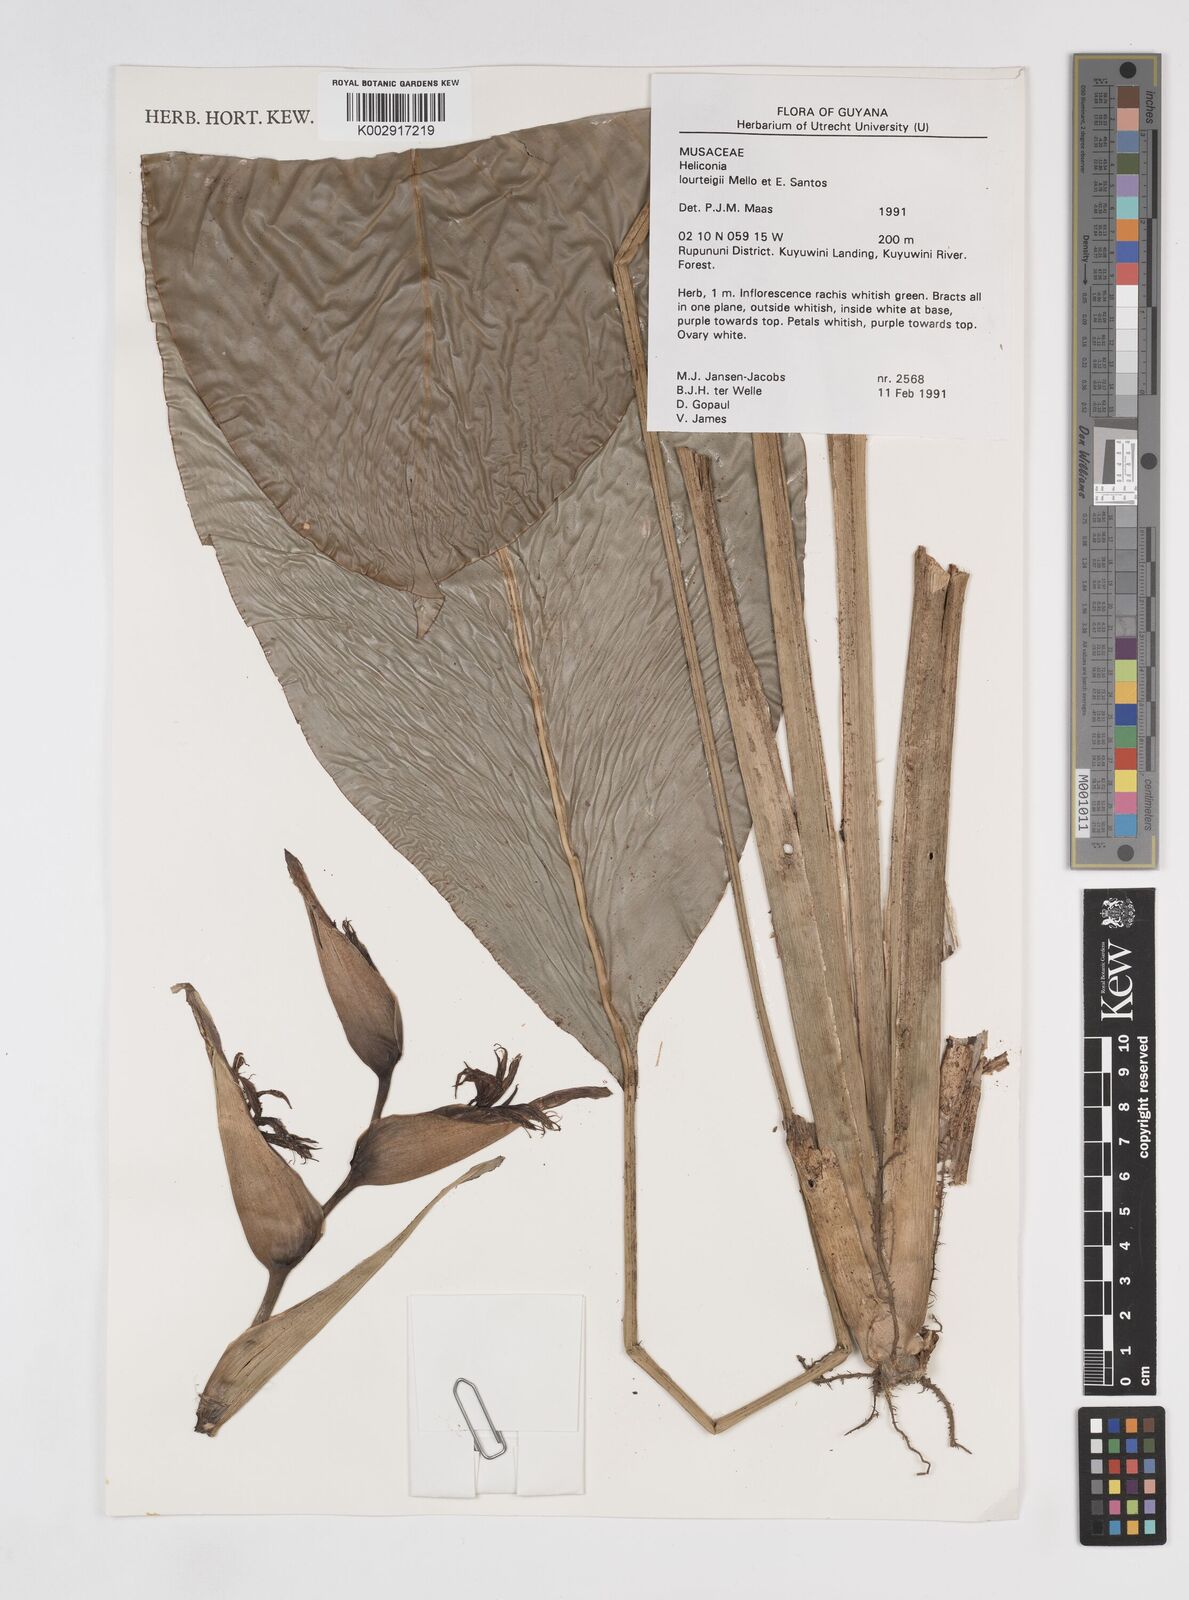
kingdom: Plantae
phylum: Tracheophyta
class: Liliopsida
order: Zingiberales
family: Heliconiaceae
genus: Heliconia
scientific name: Heliconia lourteigiae
